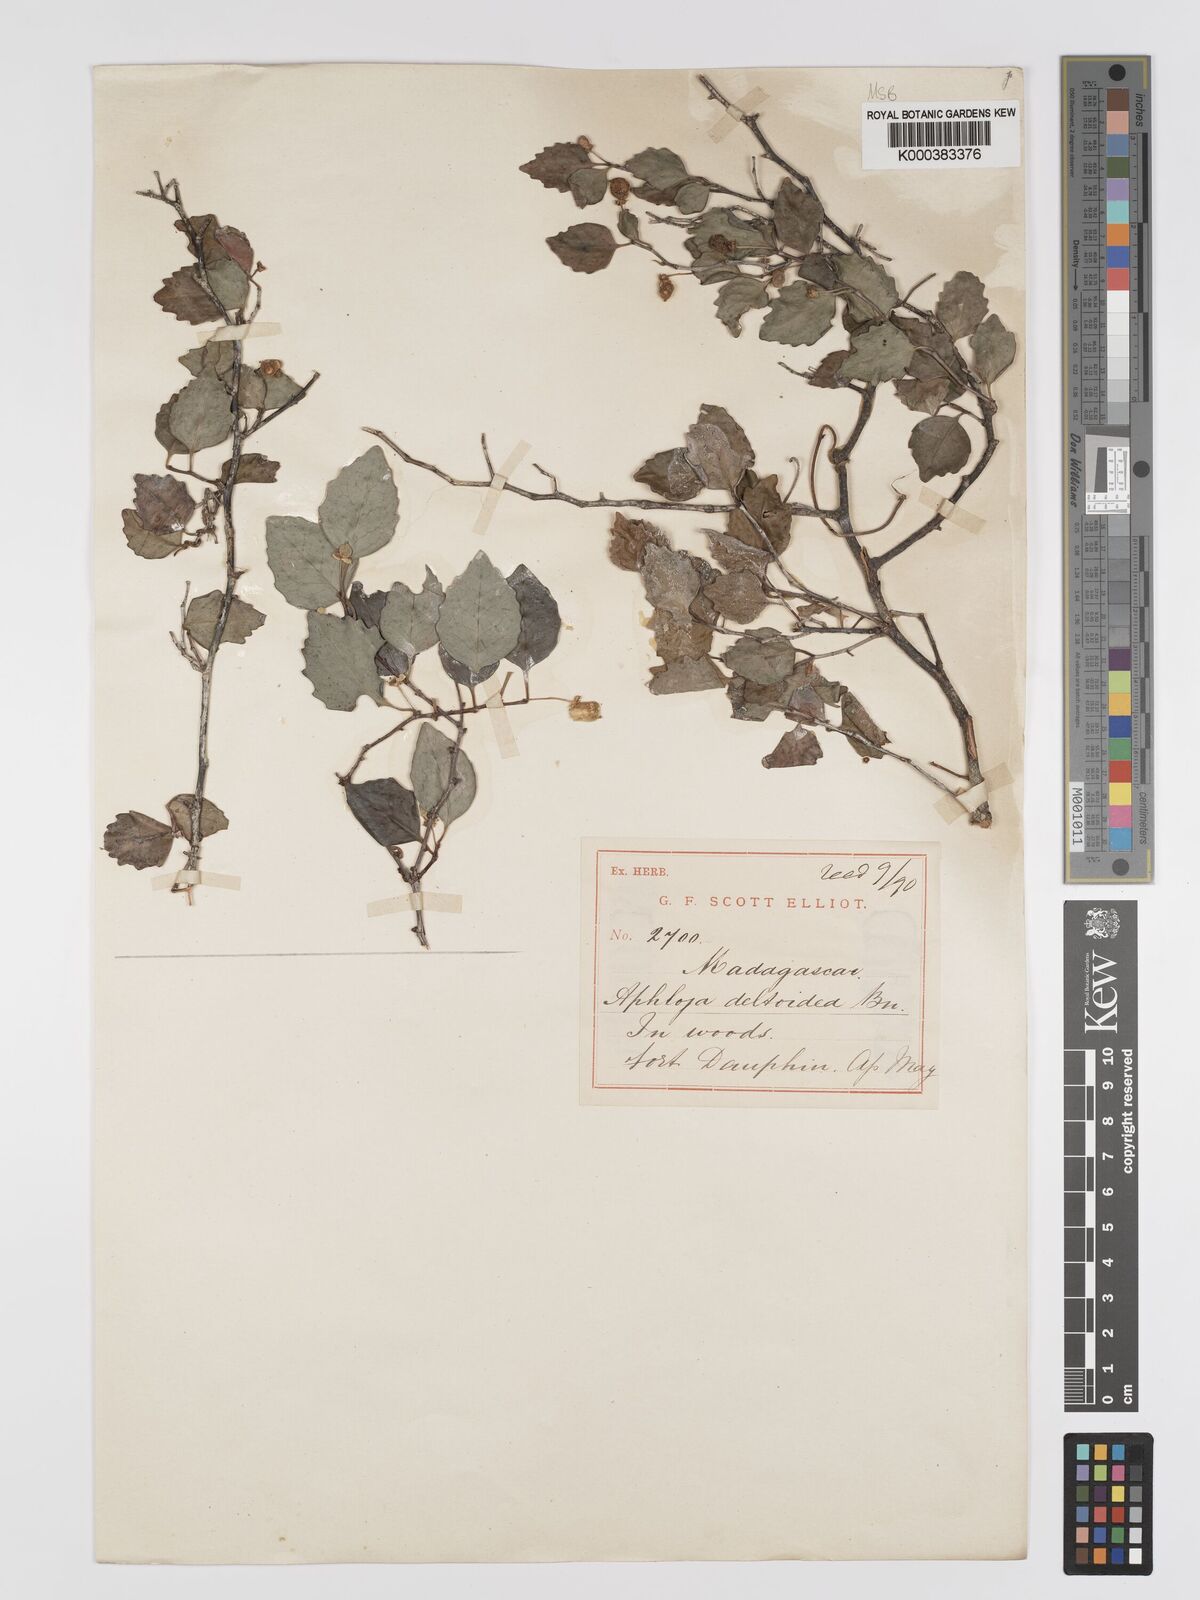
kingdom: Plantae
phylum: Tracheophyta
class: Magnoliopsida
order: Crossosomatales
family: Aphloiaceae
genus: Aphloia
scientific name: Aphloia theiformis
